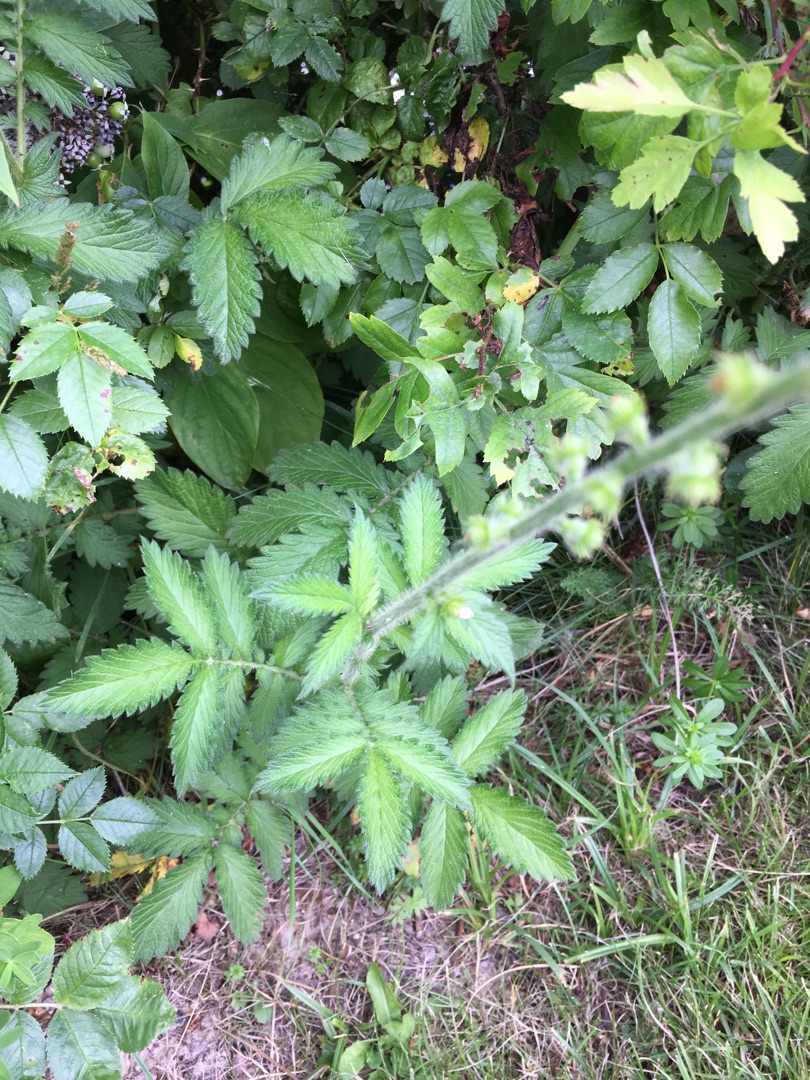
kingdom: Plantae
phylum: Tracheophyta
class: Magnoliopsida
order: Rosales
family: Rosaceae
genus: Agrimonia
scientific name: Agrimonia eupatoria
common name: Almindelig agermåne
